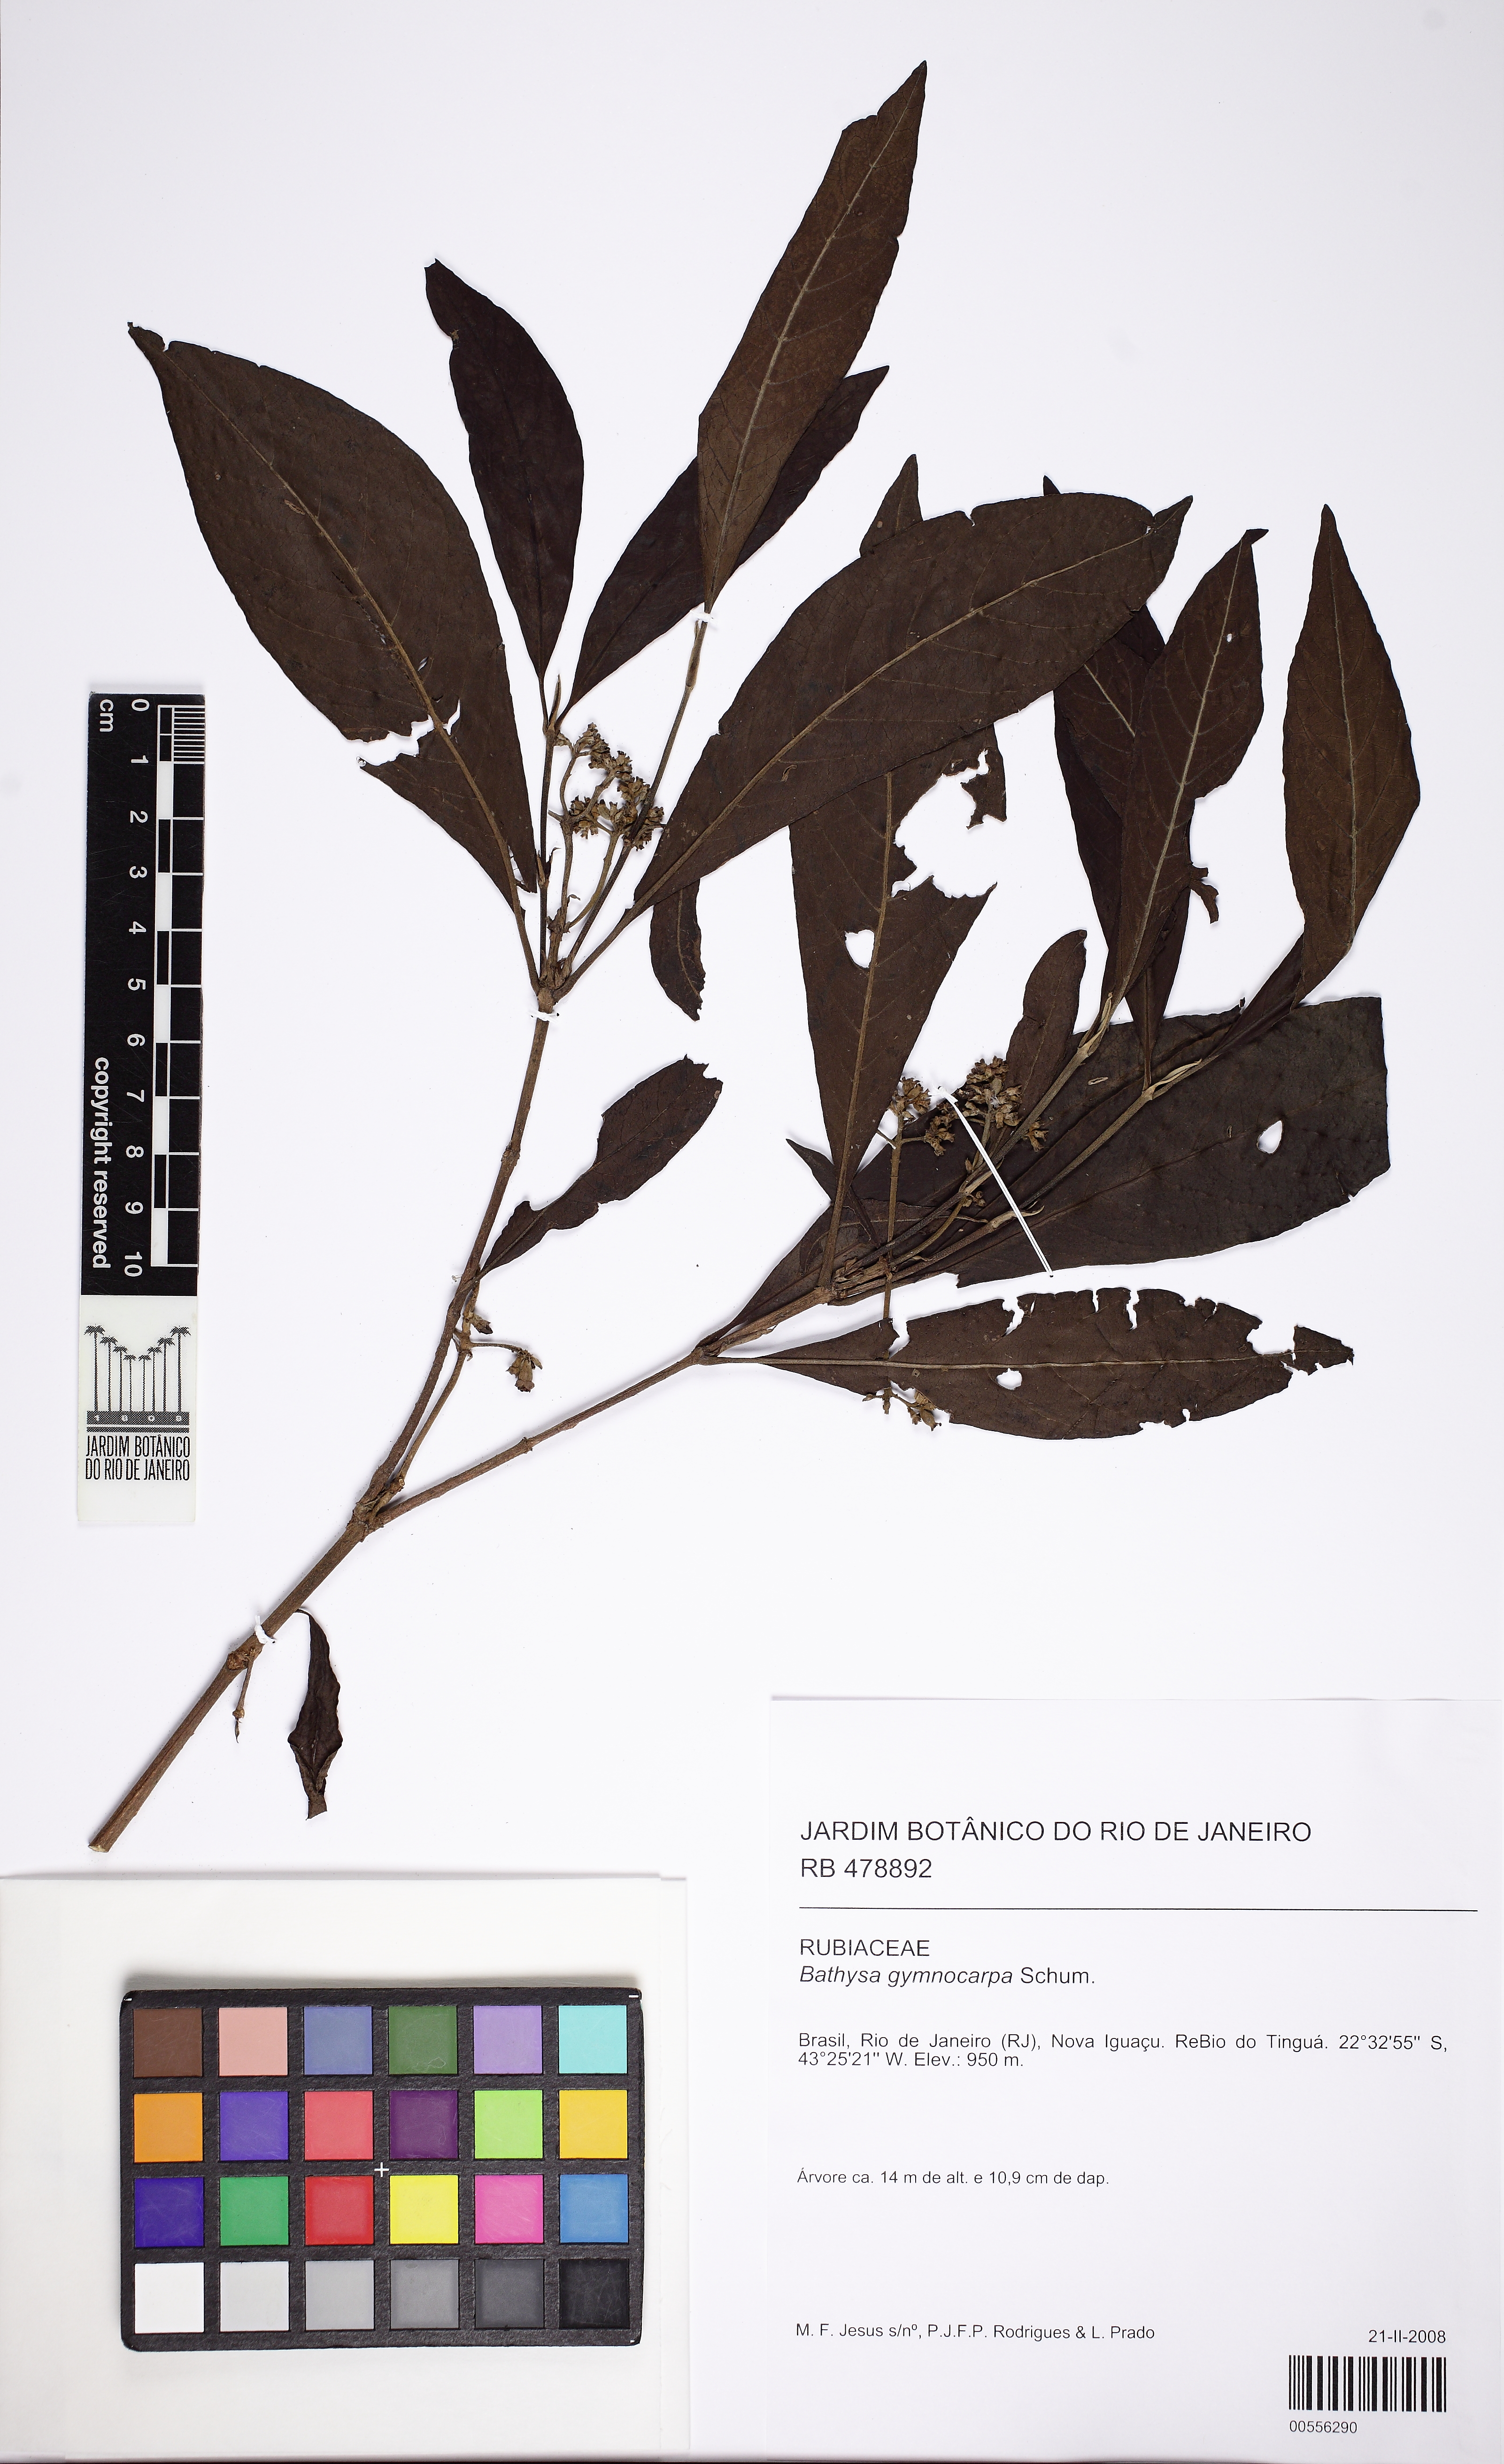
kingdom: Plantae
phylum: Tracheophyta
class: Magnoliopsida
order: Gentianales
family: Rubiaceae
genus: Bathysa
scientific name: Bathysa gymnocarpa
